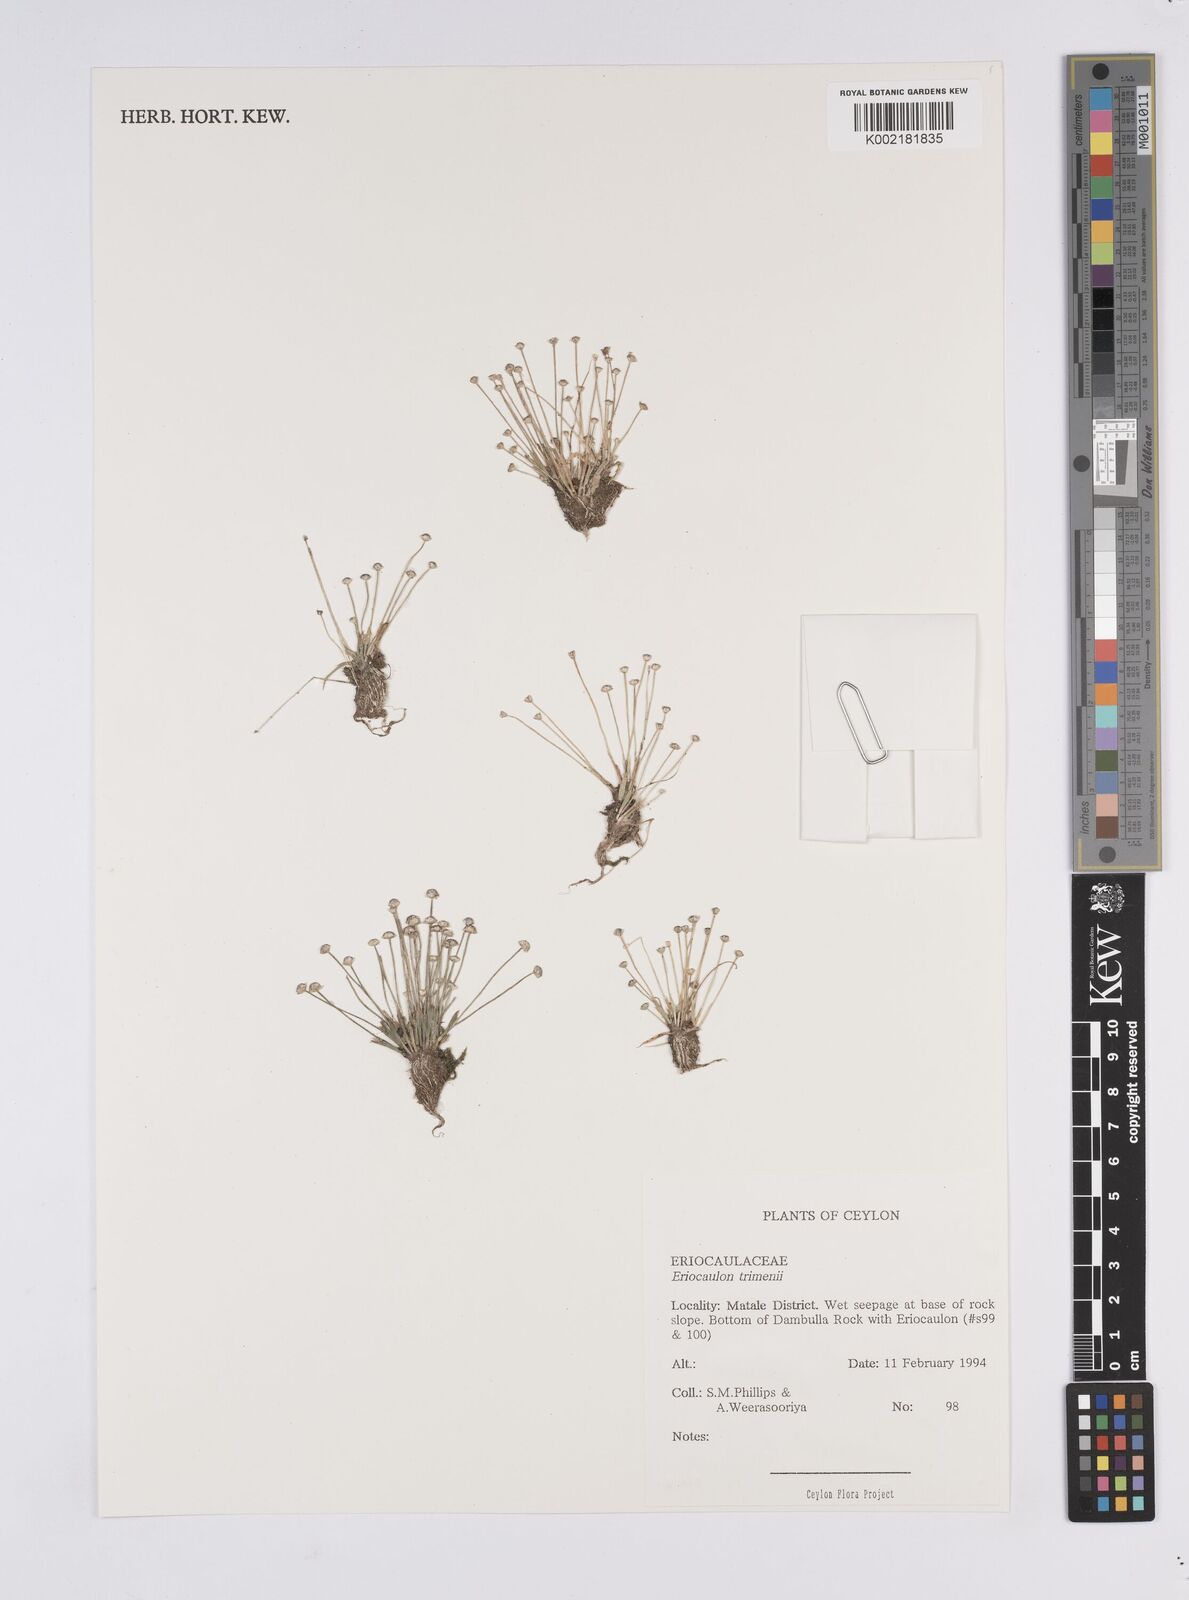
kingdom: Plantae
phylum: Tracheophyta
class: Liliopsida
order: Poales
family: Eriocaulaceae
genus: Eriocaulon
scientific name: Eriocaulon minimum
